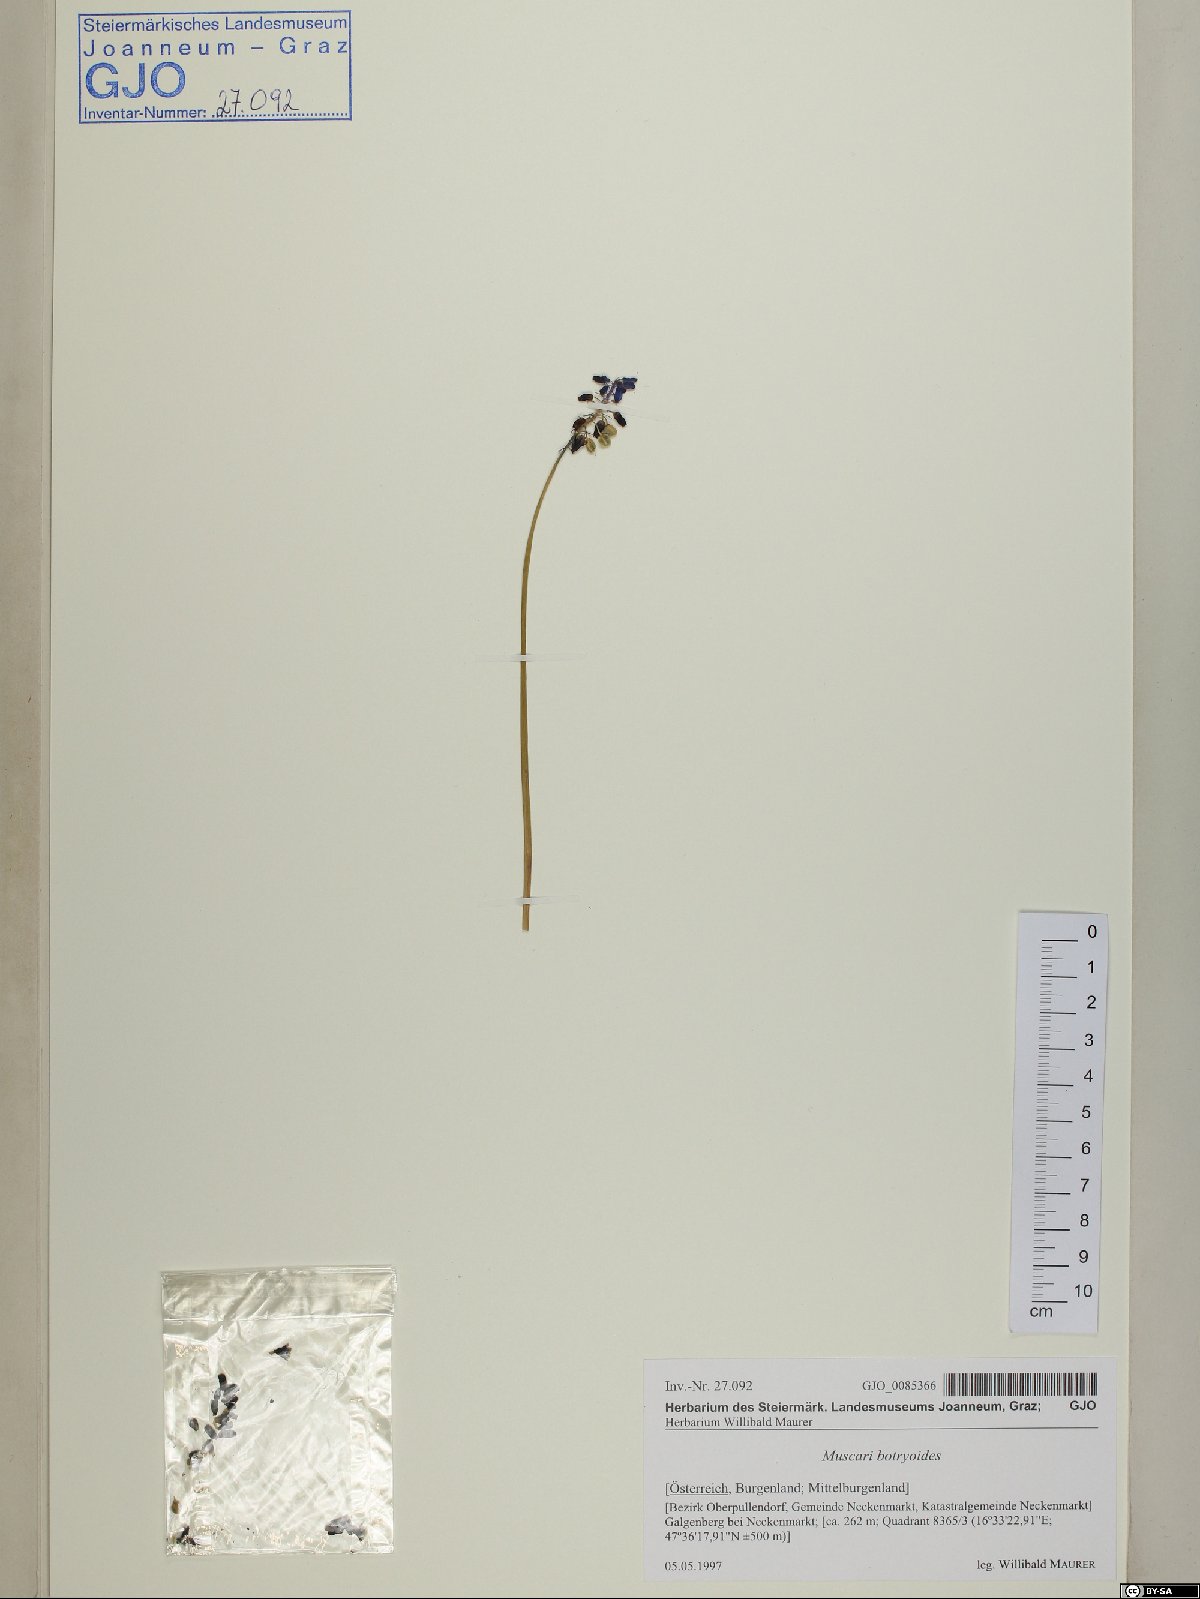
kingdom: Plantae
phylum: Tracheophyta
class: Liliopsida
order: Asparagales
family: Asparagaceae
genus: Muscari
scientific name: Muscari botryoides
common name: Compact grape-hyacinth
